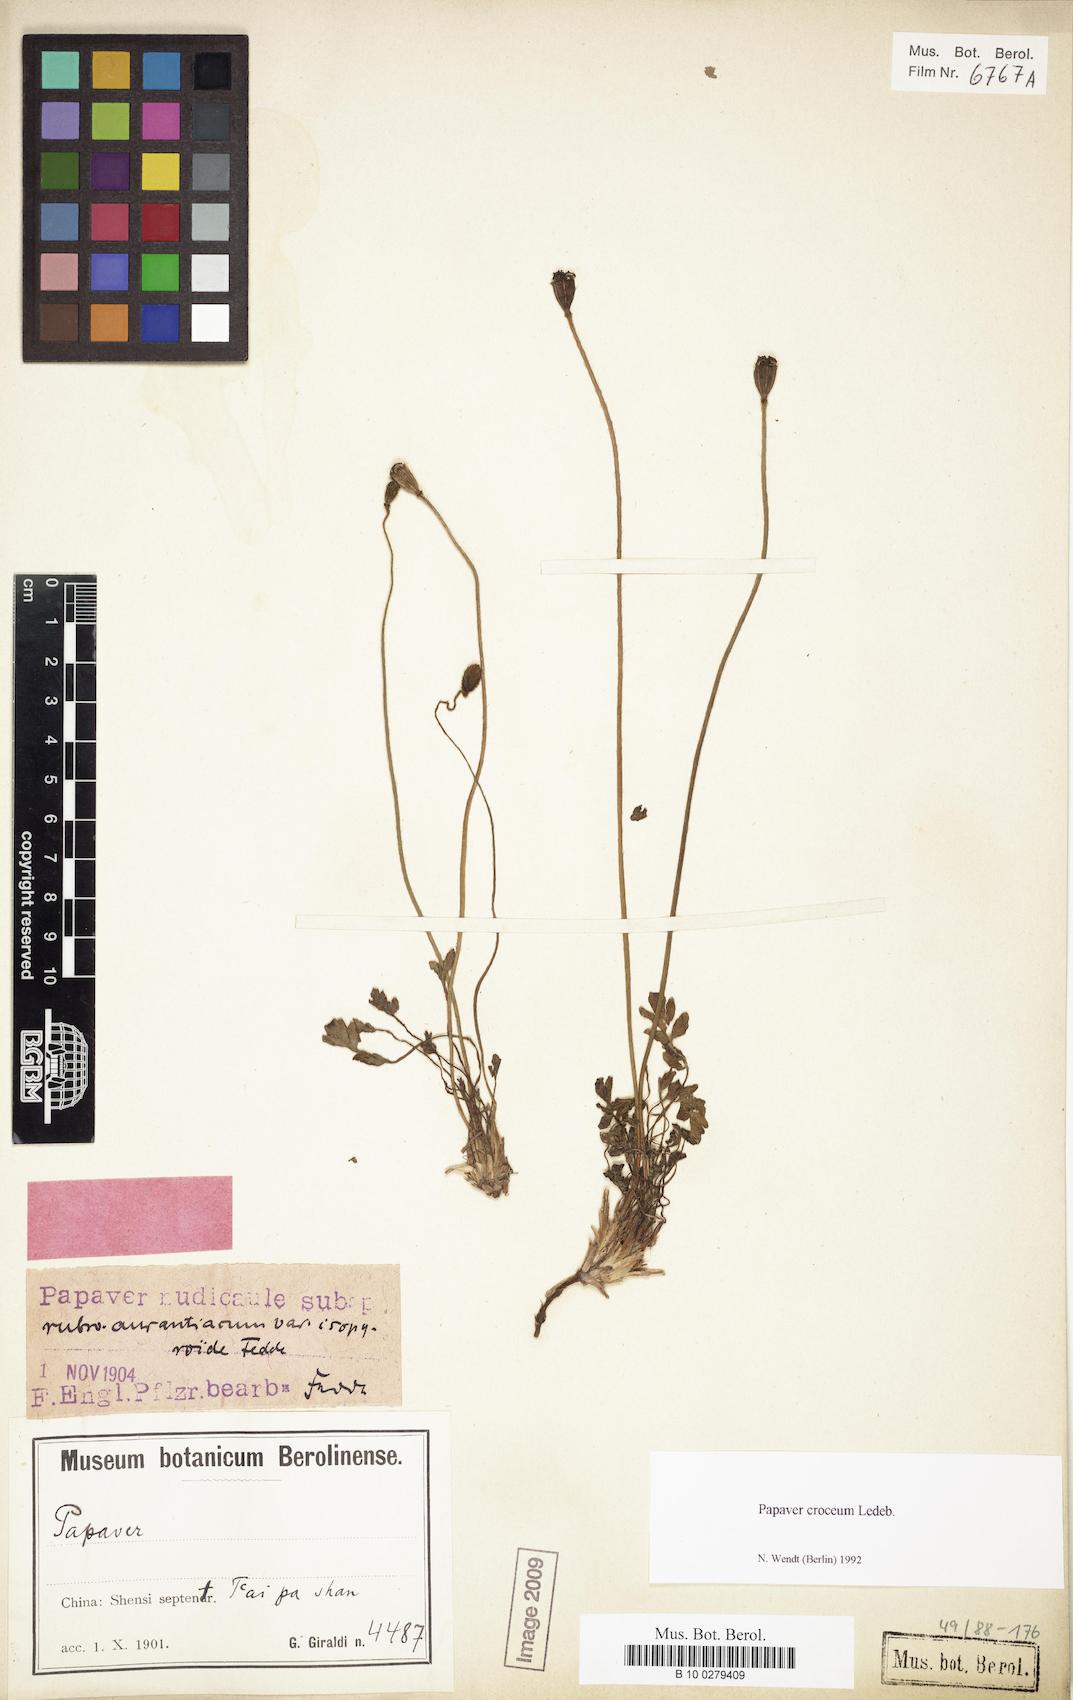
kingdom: Plantae
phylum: Tracheophyta
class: Magnoliopsida
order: Ranunculales
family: Papaveraceae
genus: Papaver
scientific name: Papaver croceum
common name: Siberian poppy
